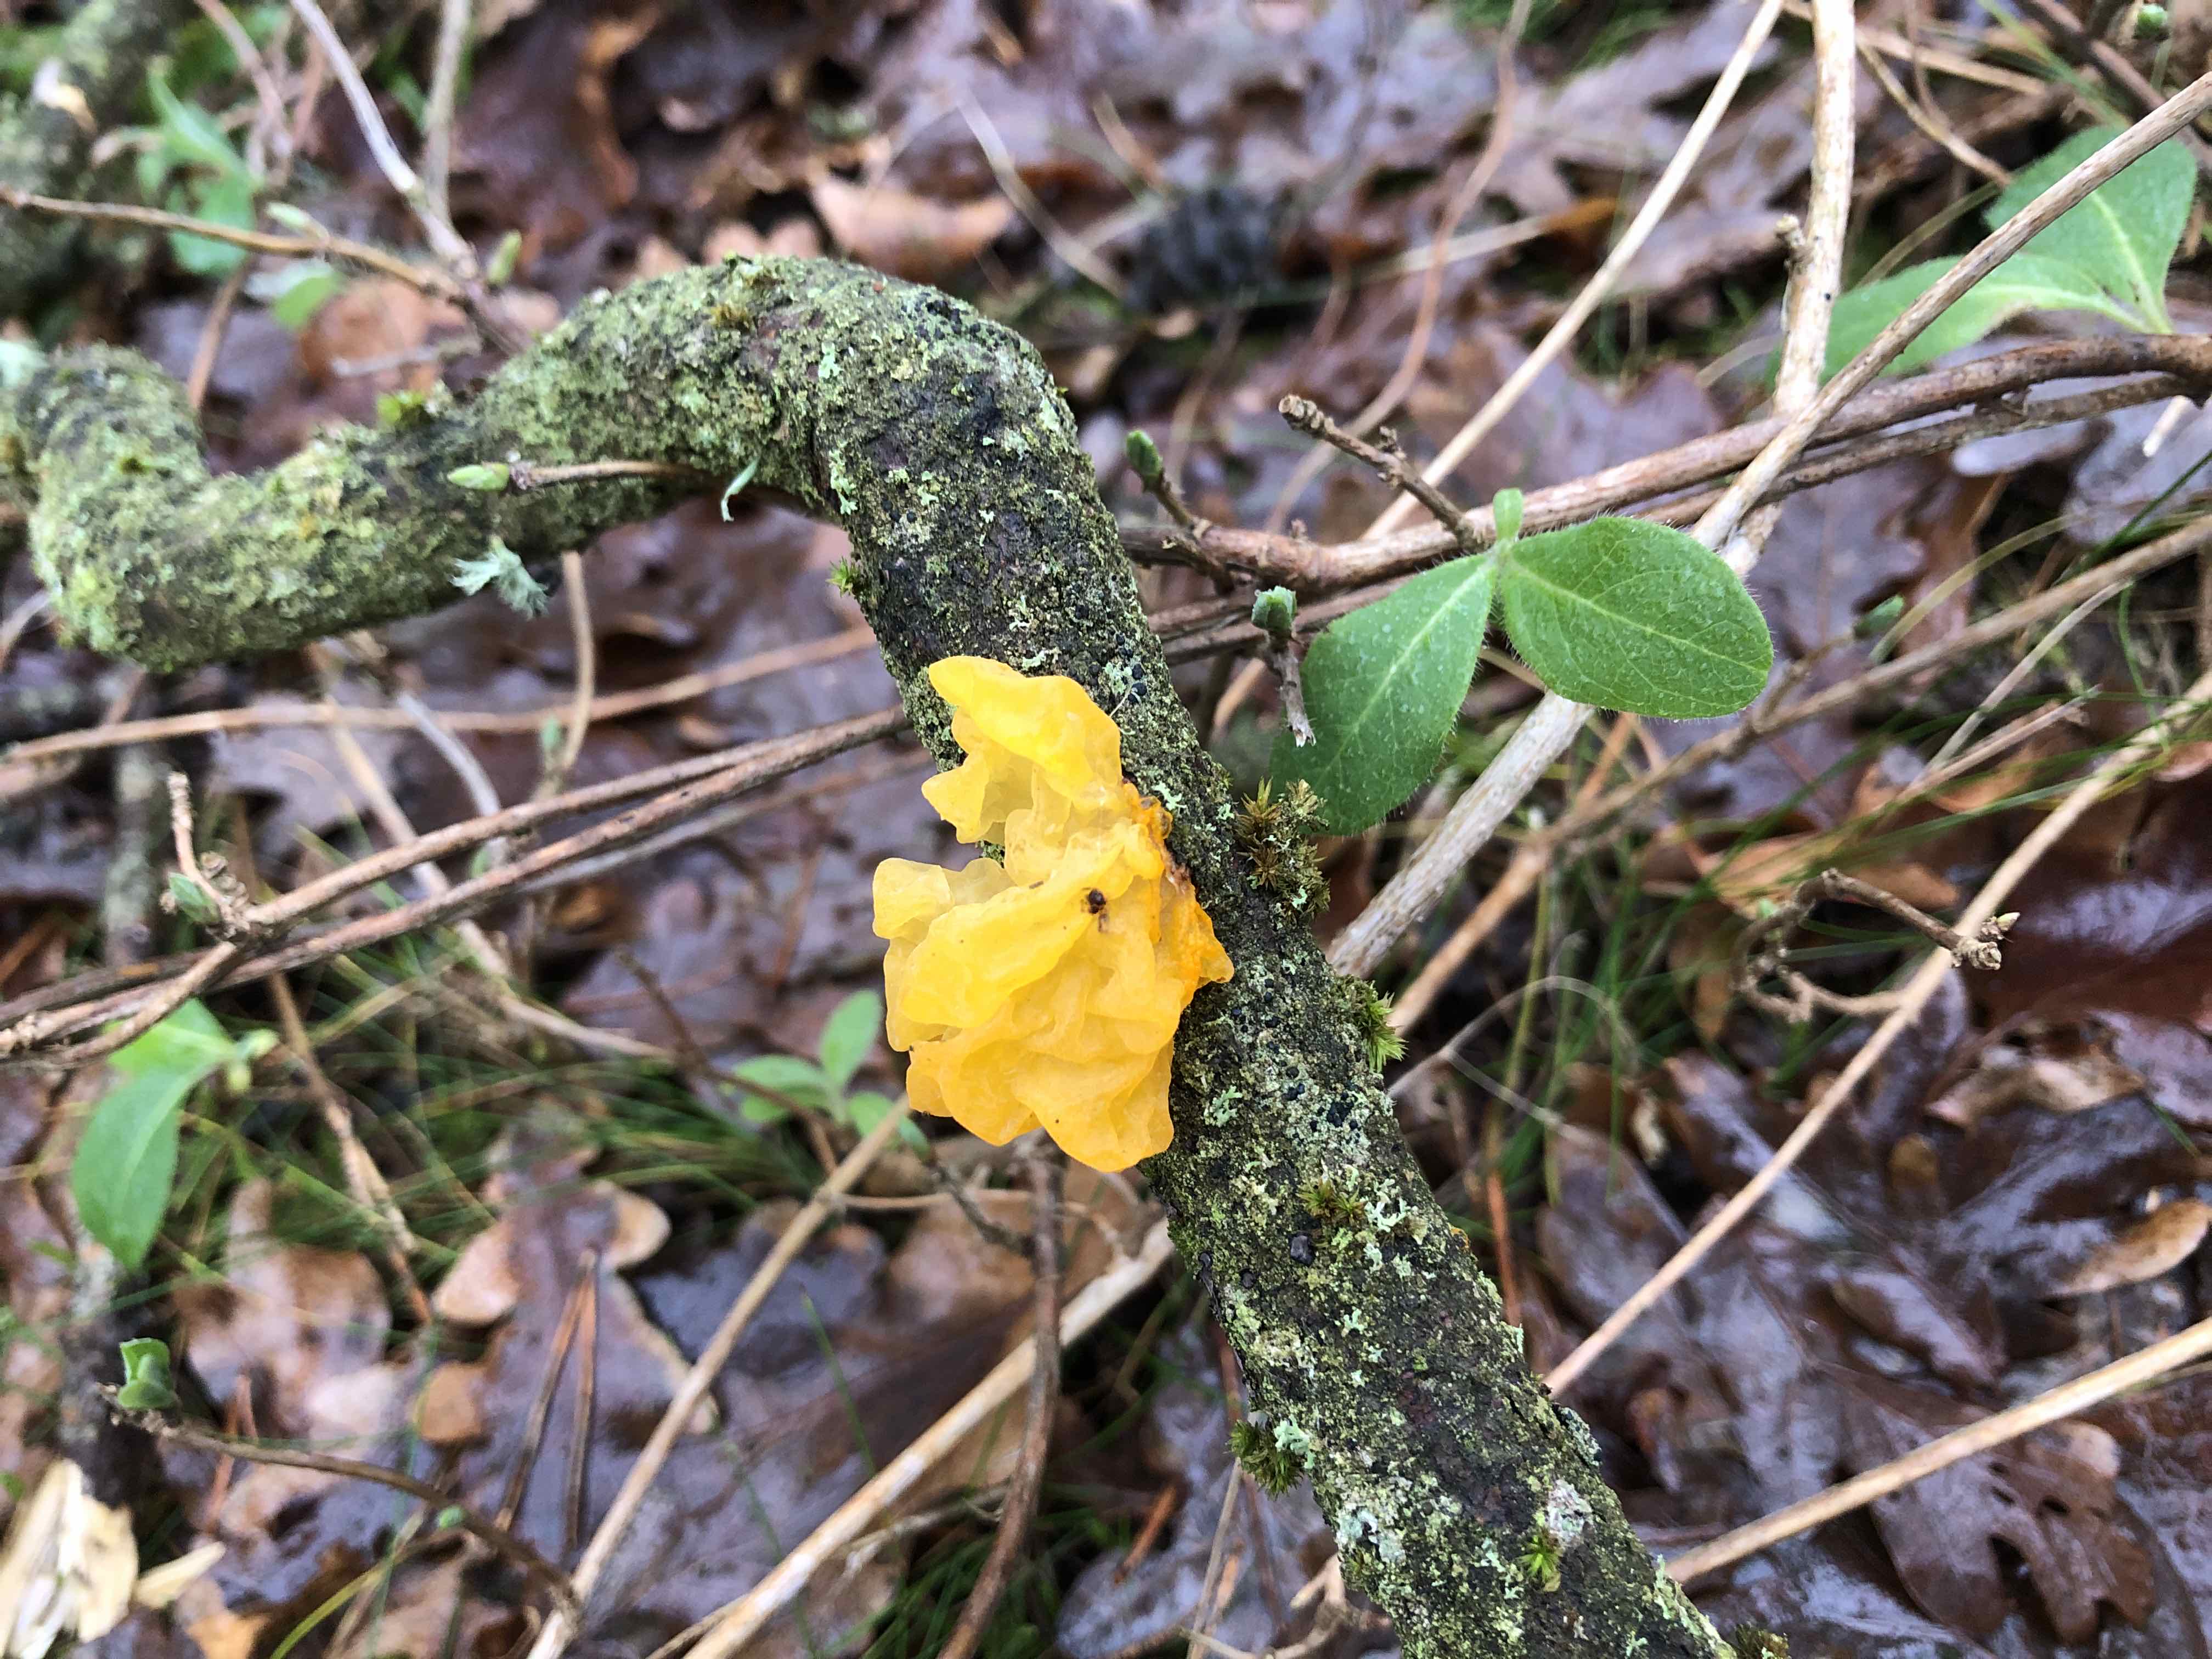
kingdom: Fungi
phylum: Basidiomycota
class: Tremellomycetes
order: Tremellales
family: Tremellaceae
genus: Tremella
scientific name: Tremella mesenterica
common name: gul bævresvamp
